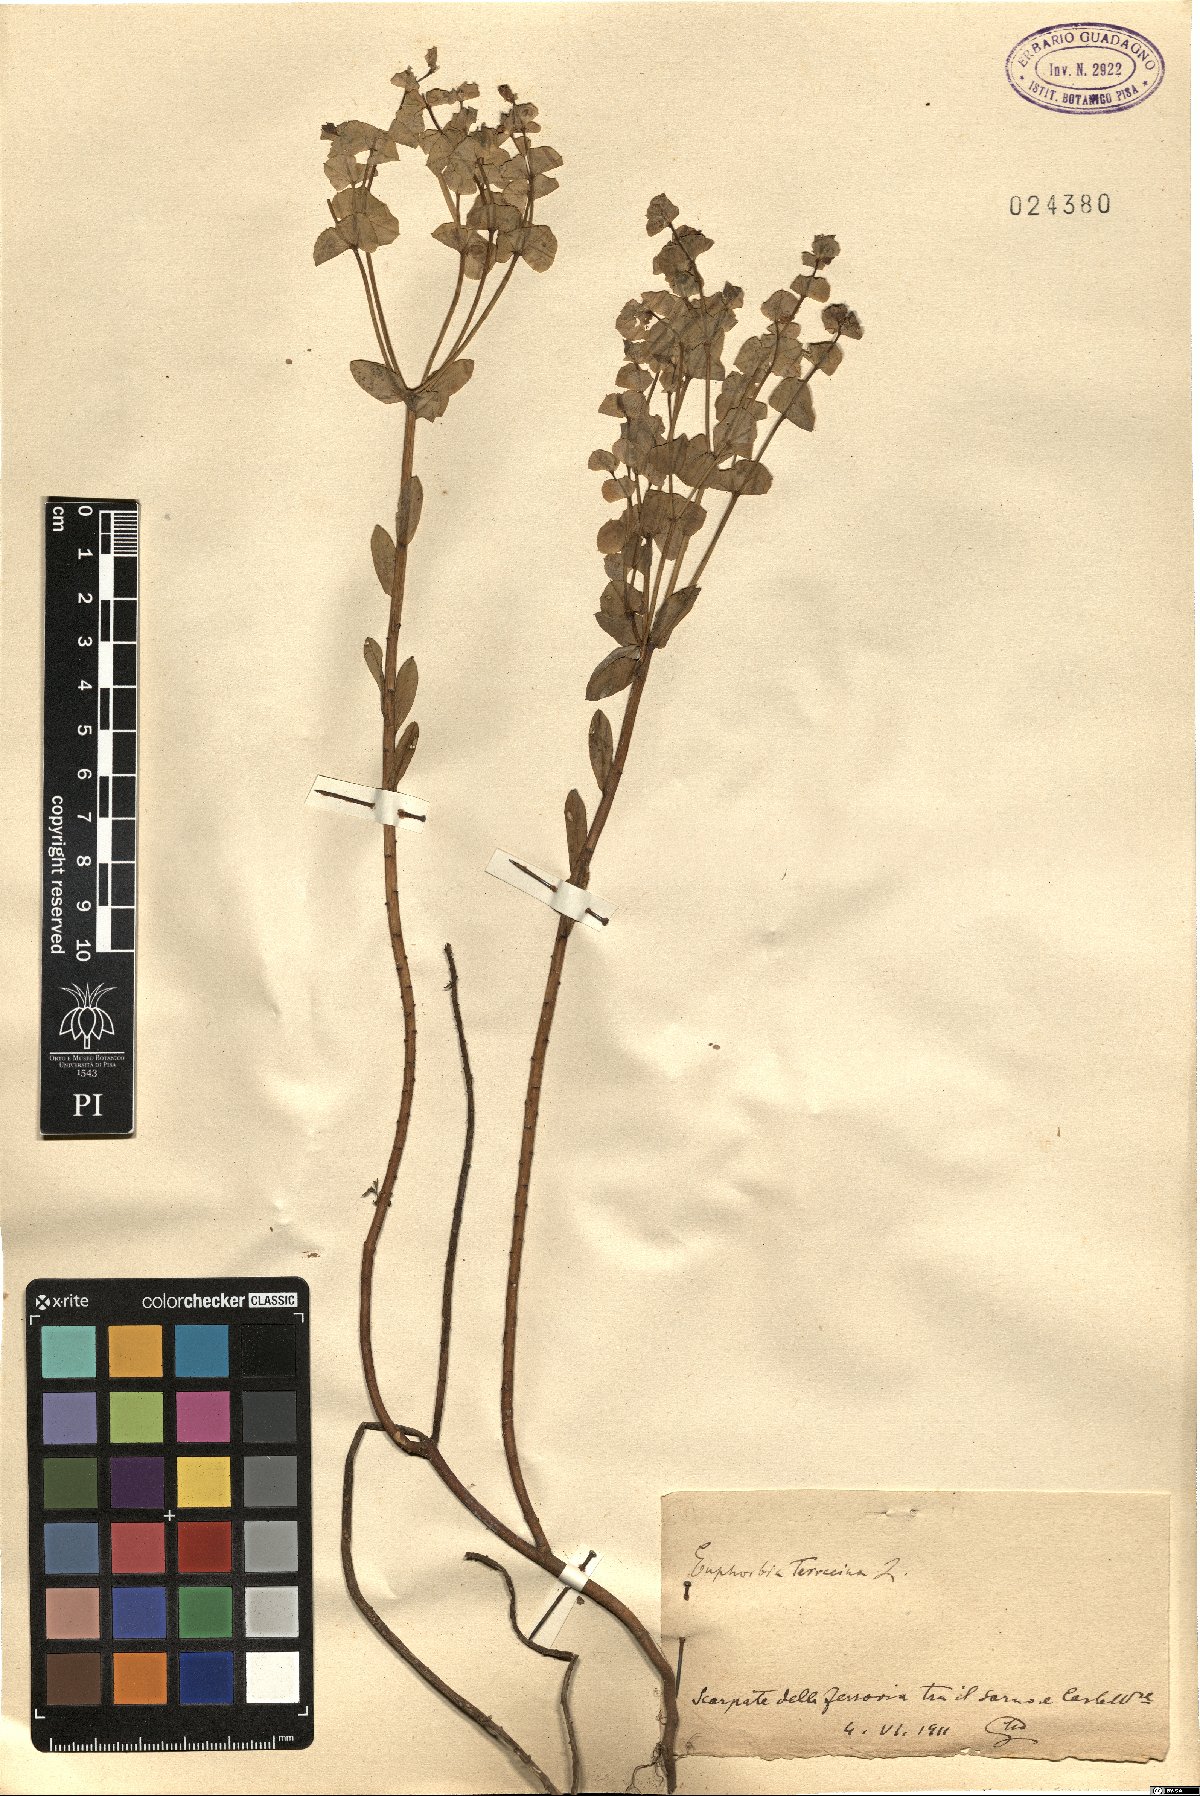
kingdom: Plantae
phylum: Tracheophyta
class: Magnoliopsida
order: Malpighiales
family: Euphorbiaceae
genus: Euphorbia
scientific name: Euphorbia terracina
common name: Geraldton carnation weed
